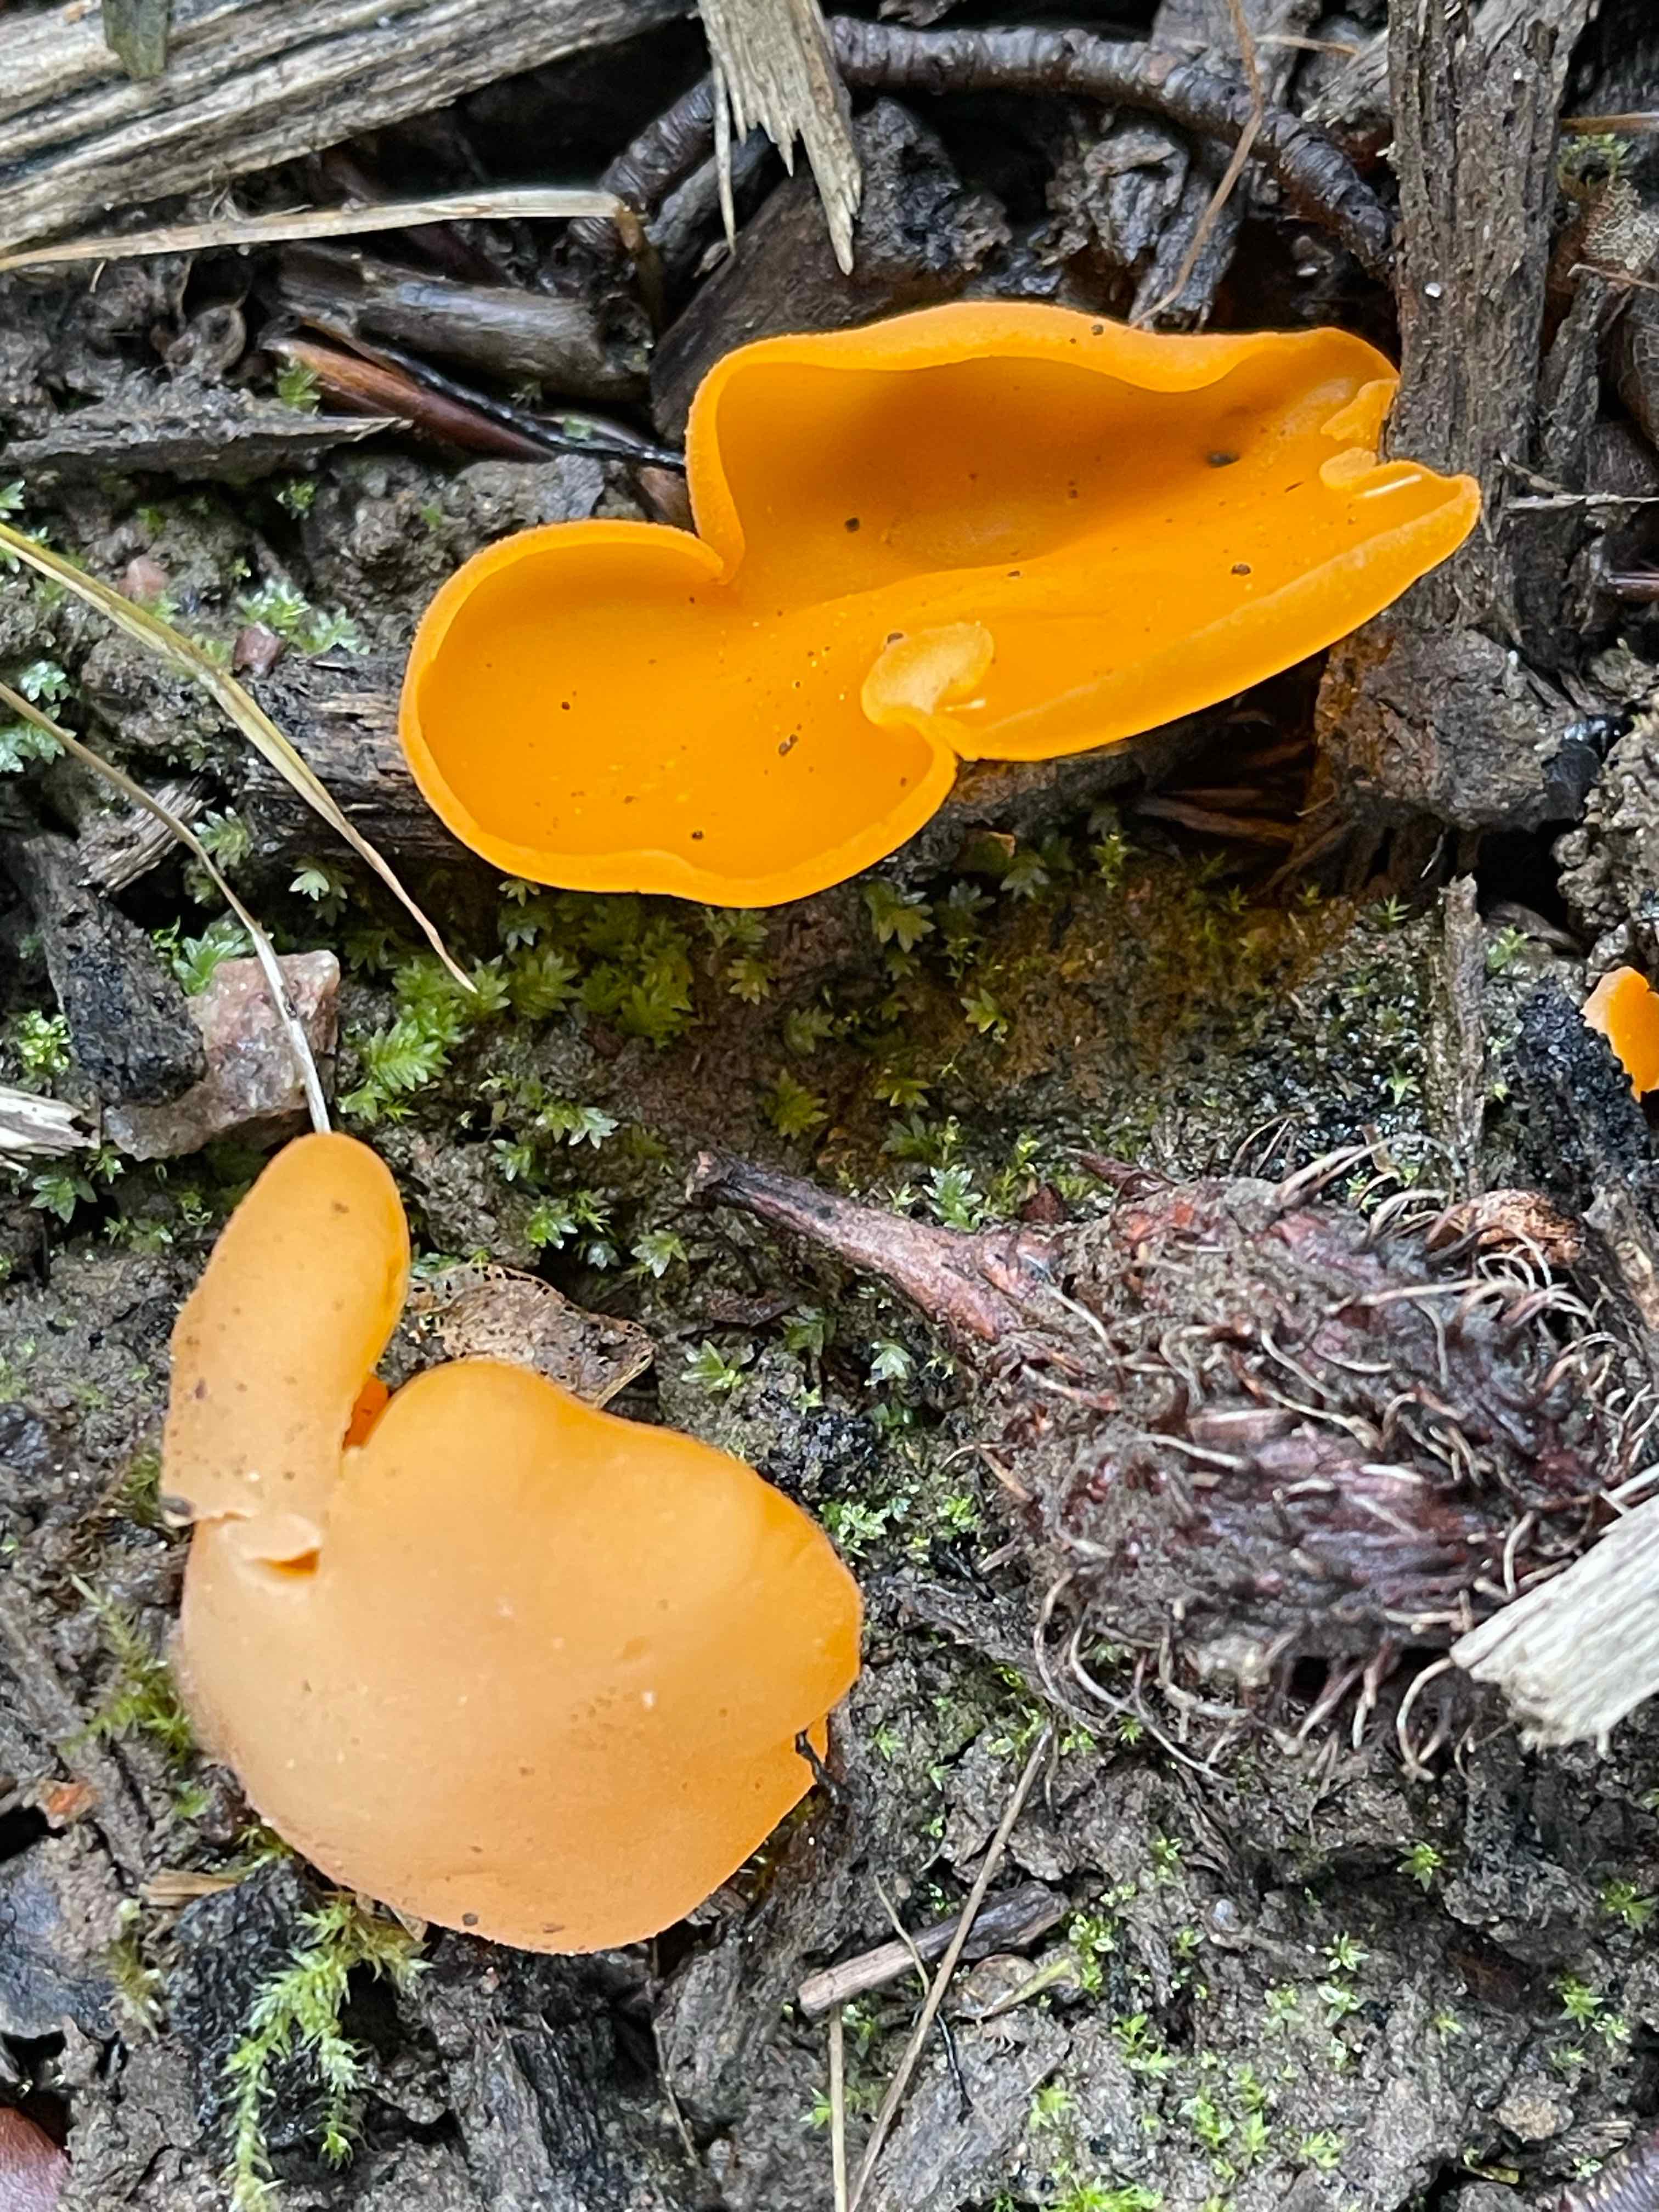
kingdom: Fungi
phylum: Ascomycota
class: Pezizomycetes
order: Pezizales
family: Pyronemataceae
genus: Aleuria
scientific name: Aleuria aurantia
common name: almindelig orangebæger
